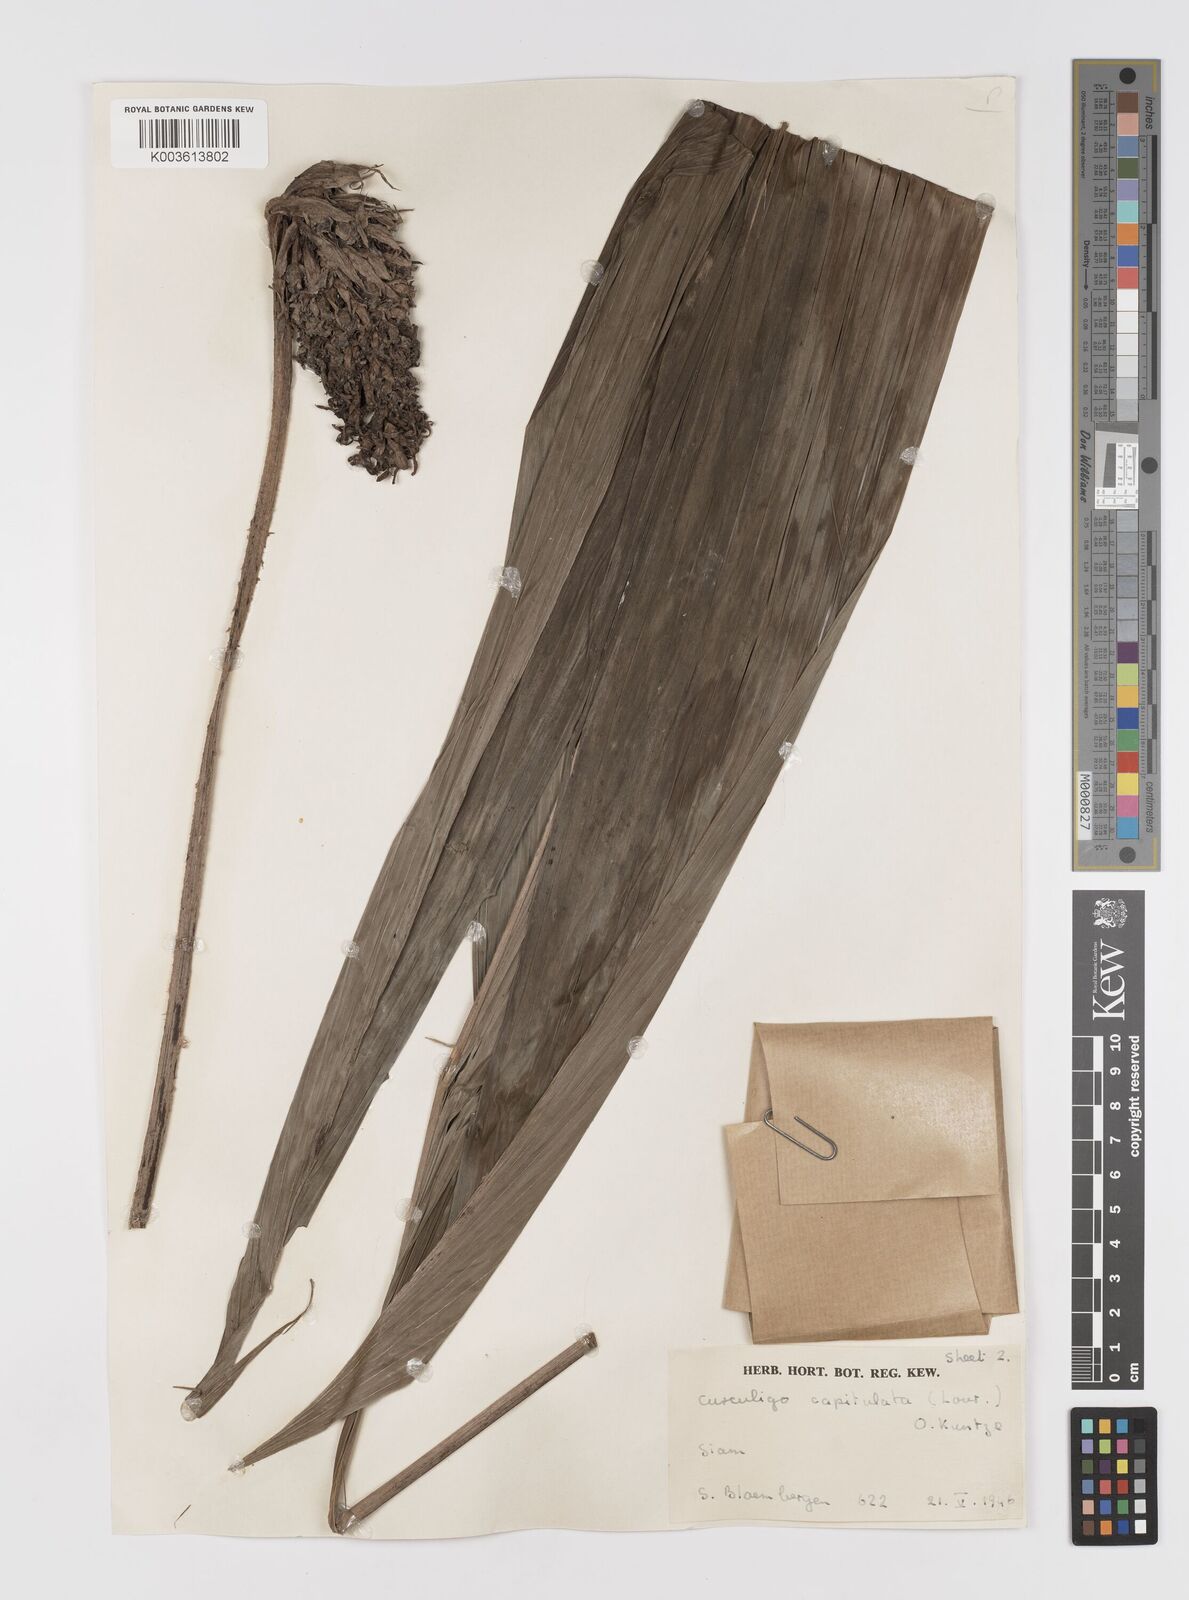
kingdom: Plantae
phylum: Tracheophyta
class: Liliopsida
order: Asparagales
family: Hypoxidaceae
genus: Curculigo
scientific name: Curculigo capitulata
